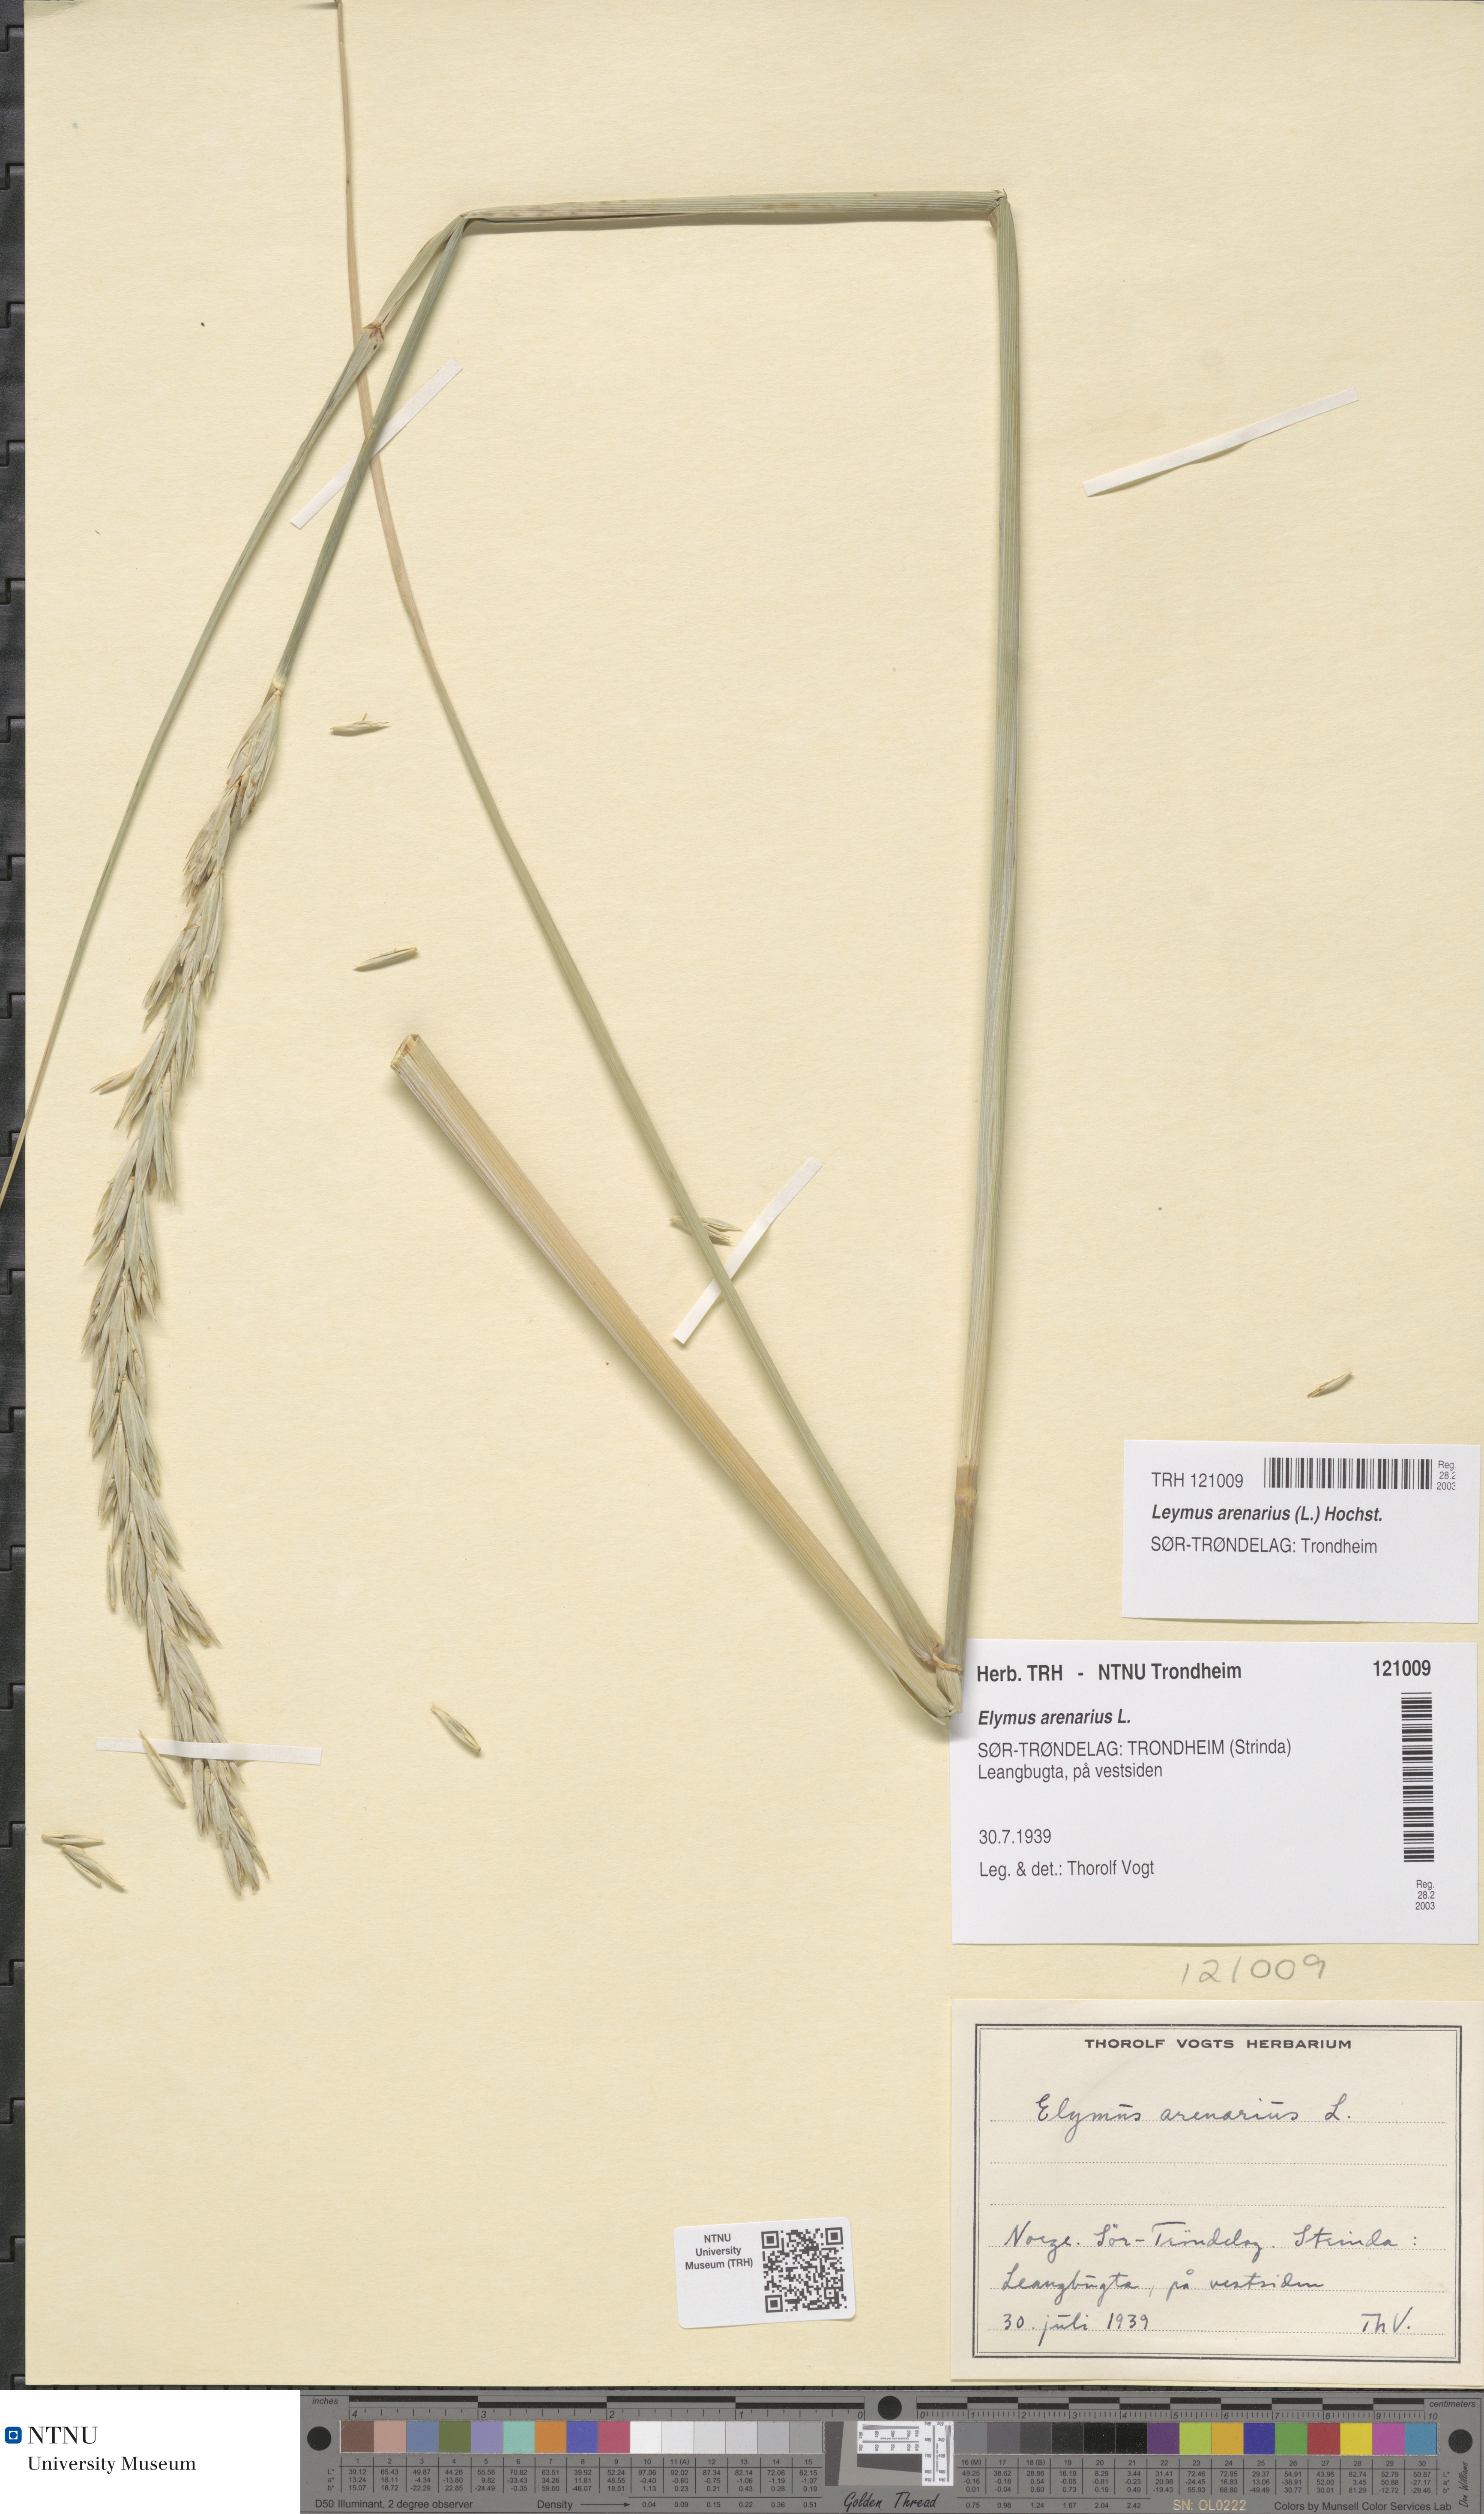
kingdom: Plantae
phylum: Tracheophyta
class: Liliopsida
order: Poales
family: Poaceae
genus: Leymus
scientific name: Leymus arenarius
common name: Lyme-grass
